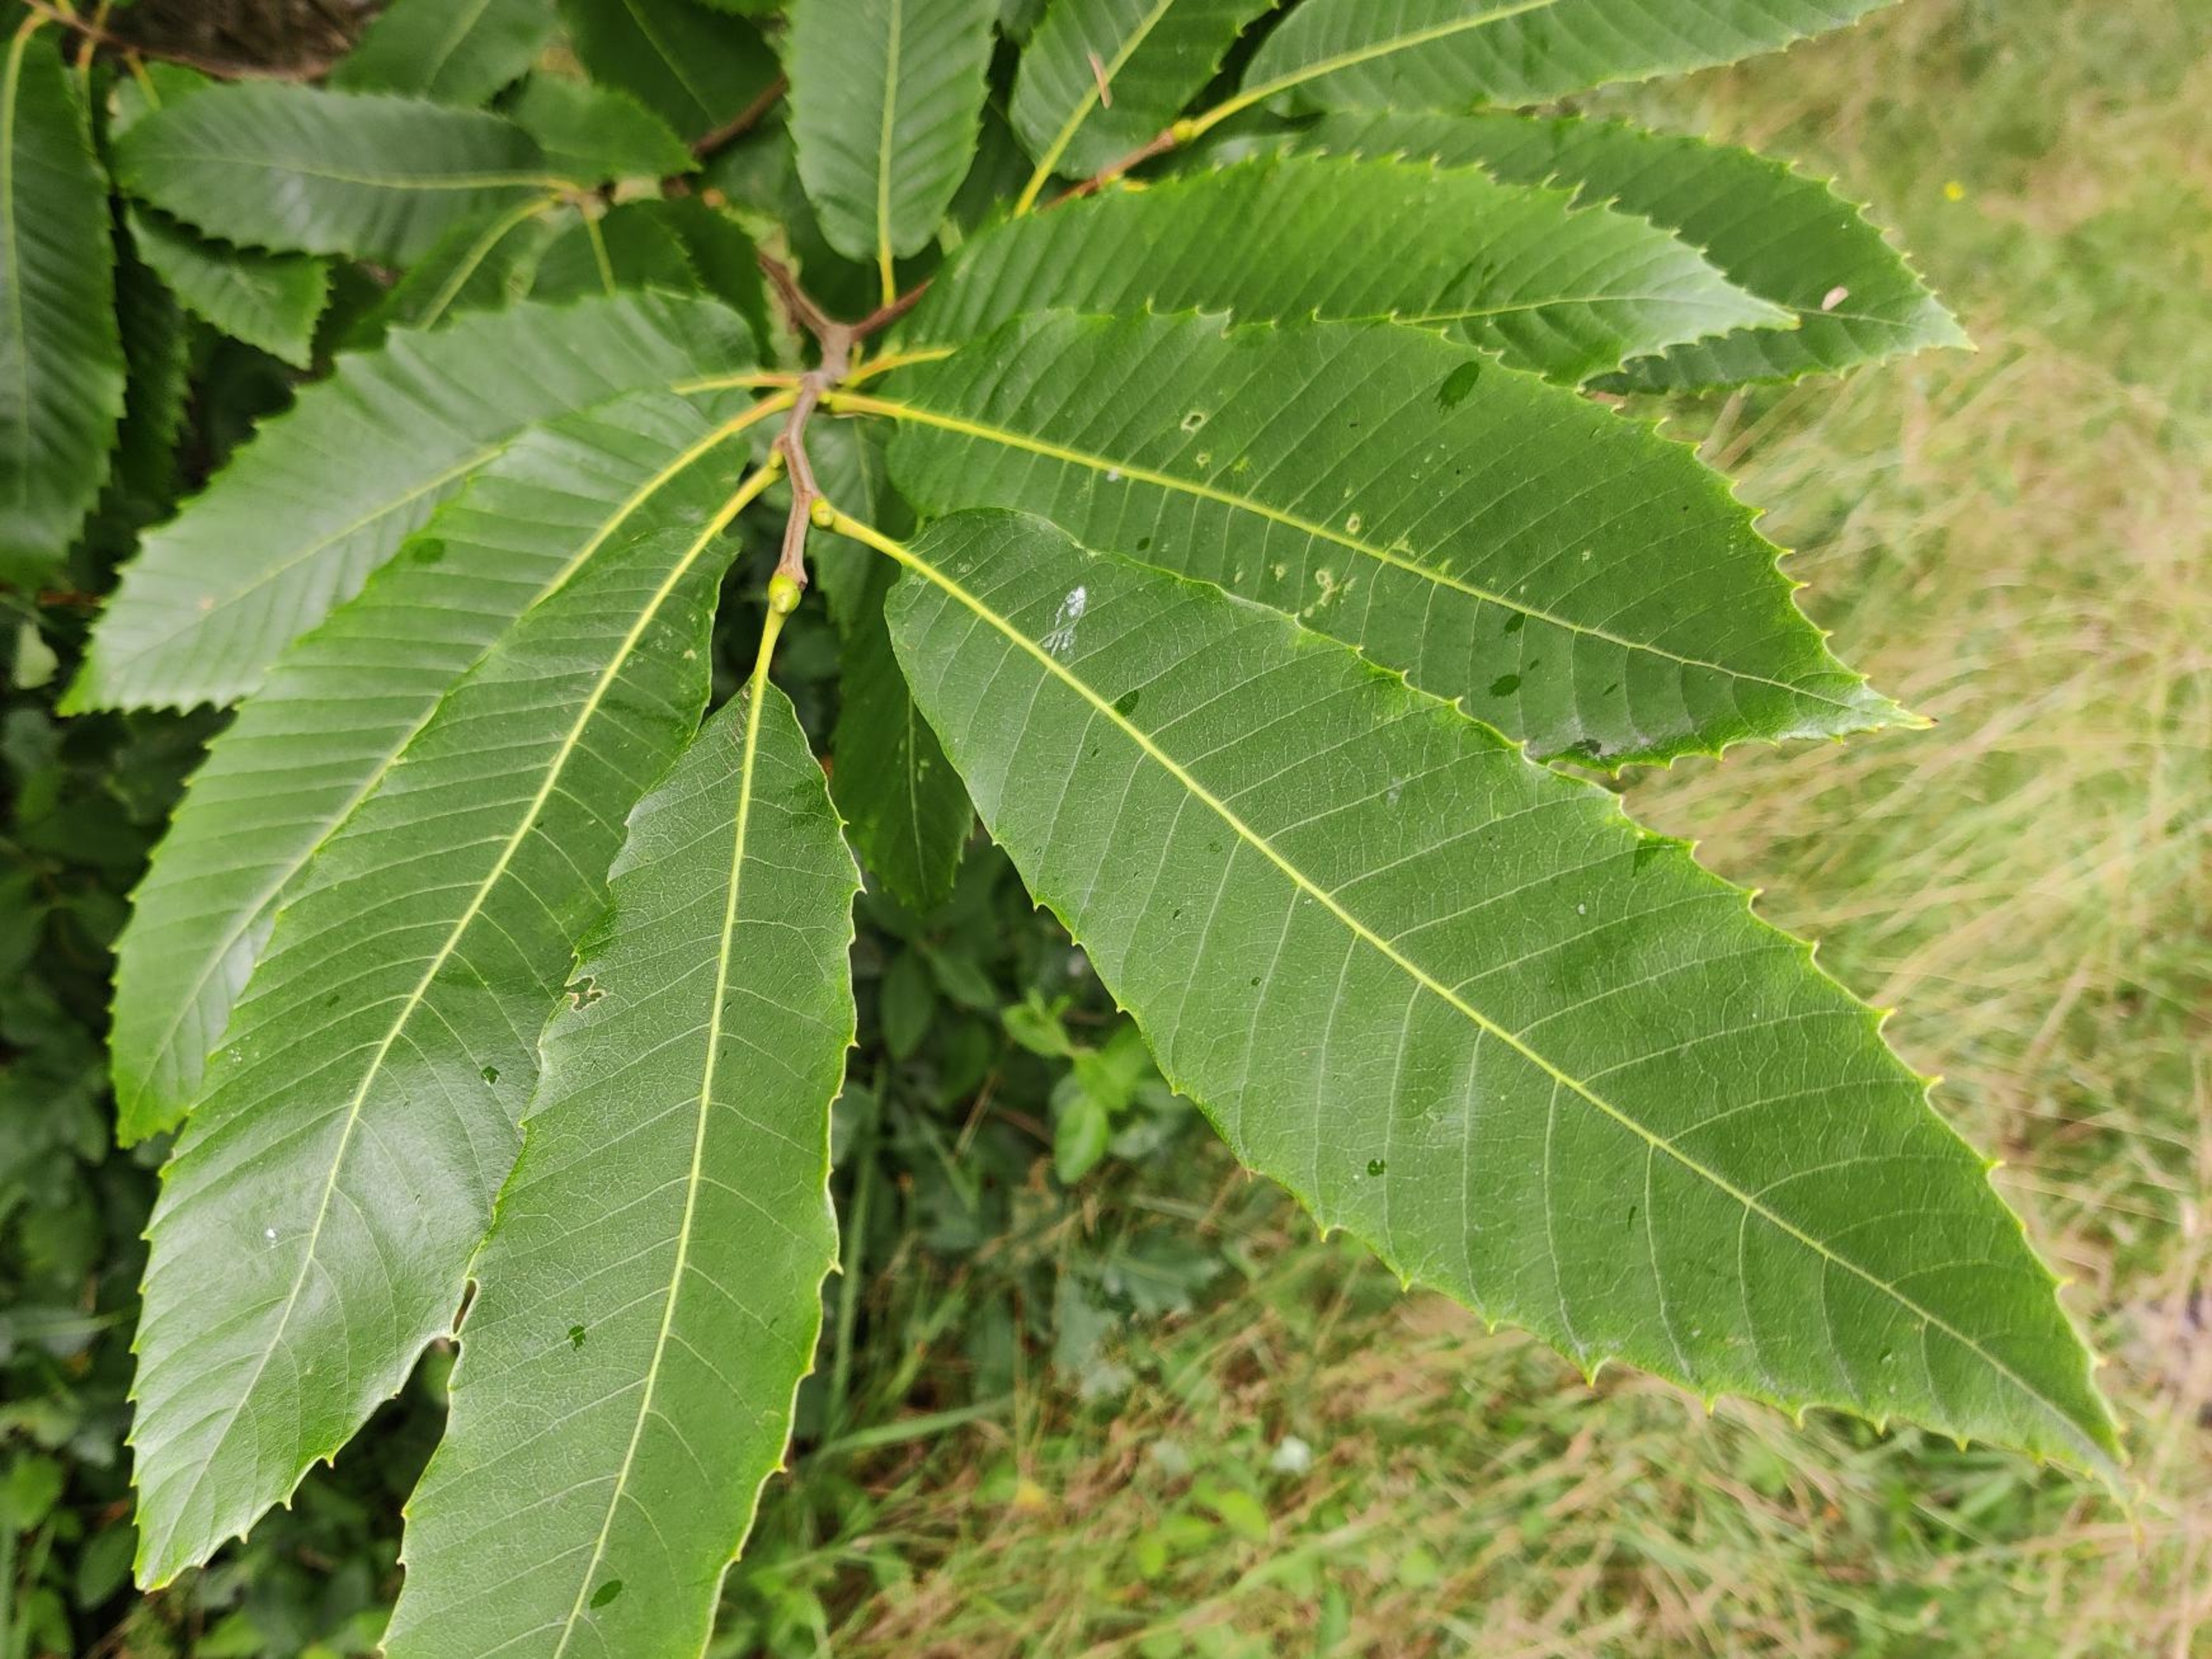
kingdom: Plantae
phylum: Tracheophyta
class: Magnoliopsida
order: Fagales
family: Fagaceae
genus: Castanea
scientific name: Castanea sativa
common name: Ægte kastanie
